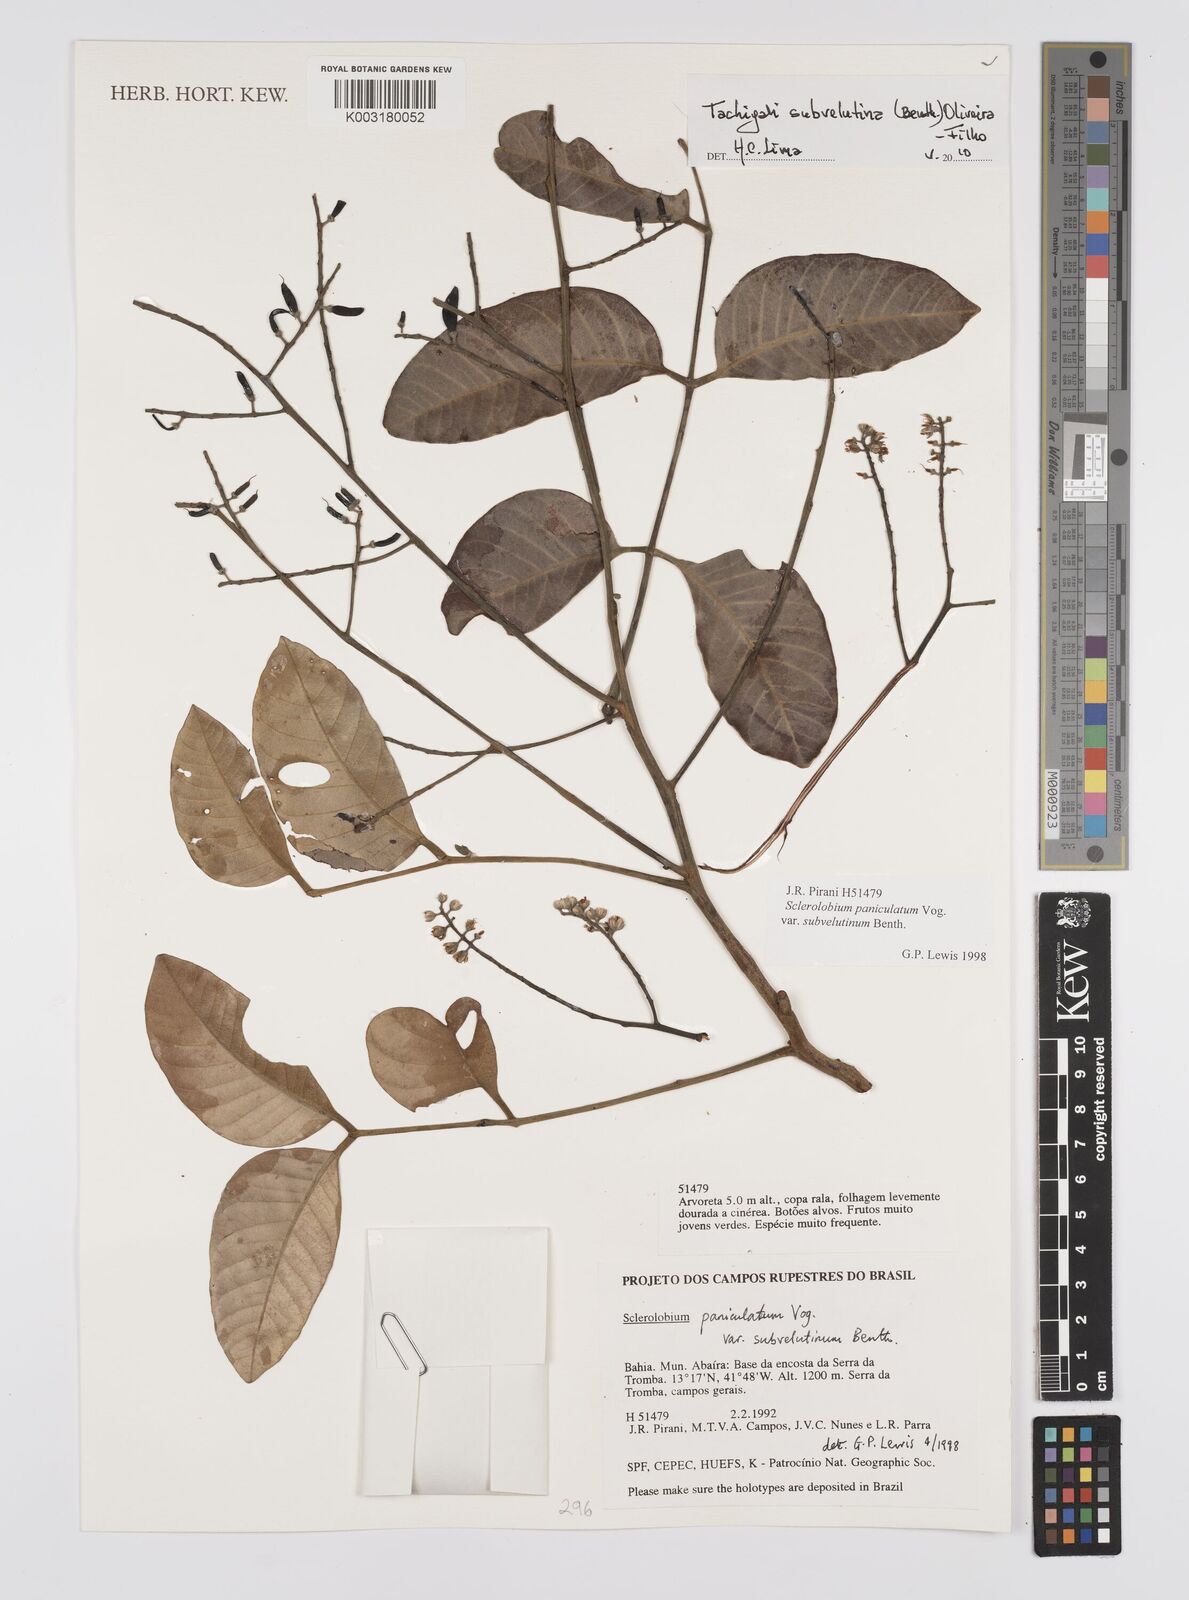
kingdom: Plantae
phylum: Tracheophyta
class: Magnoliopsida
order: Fabales
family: Fabaceae
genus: Tachigali
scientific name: Tachigali subvelutina
